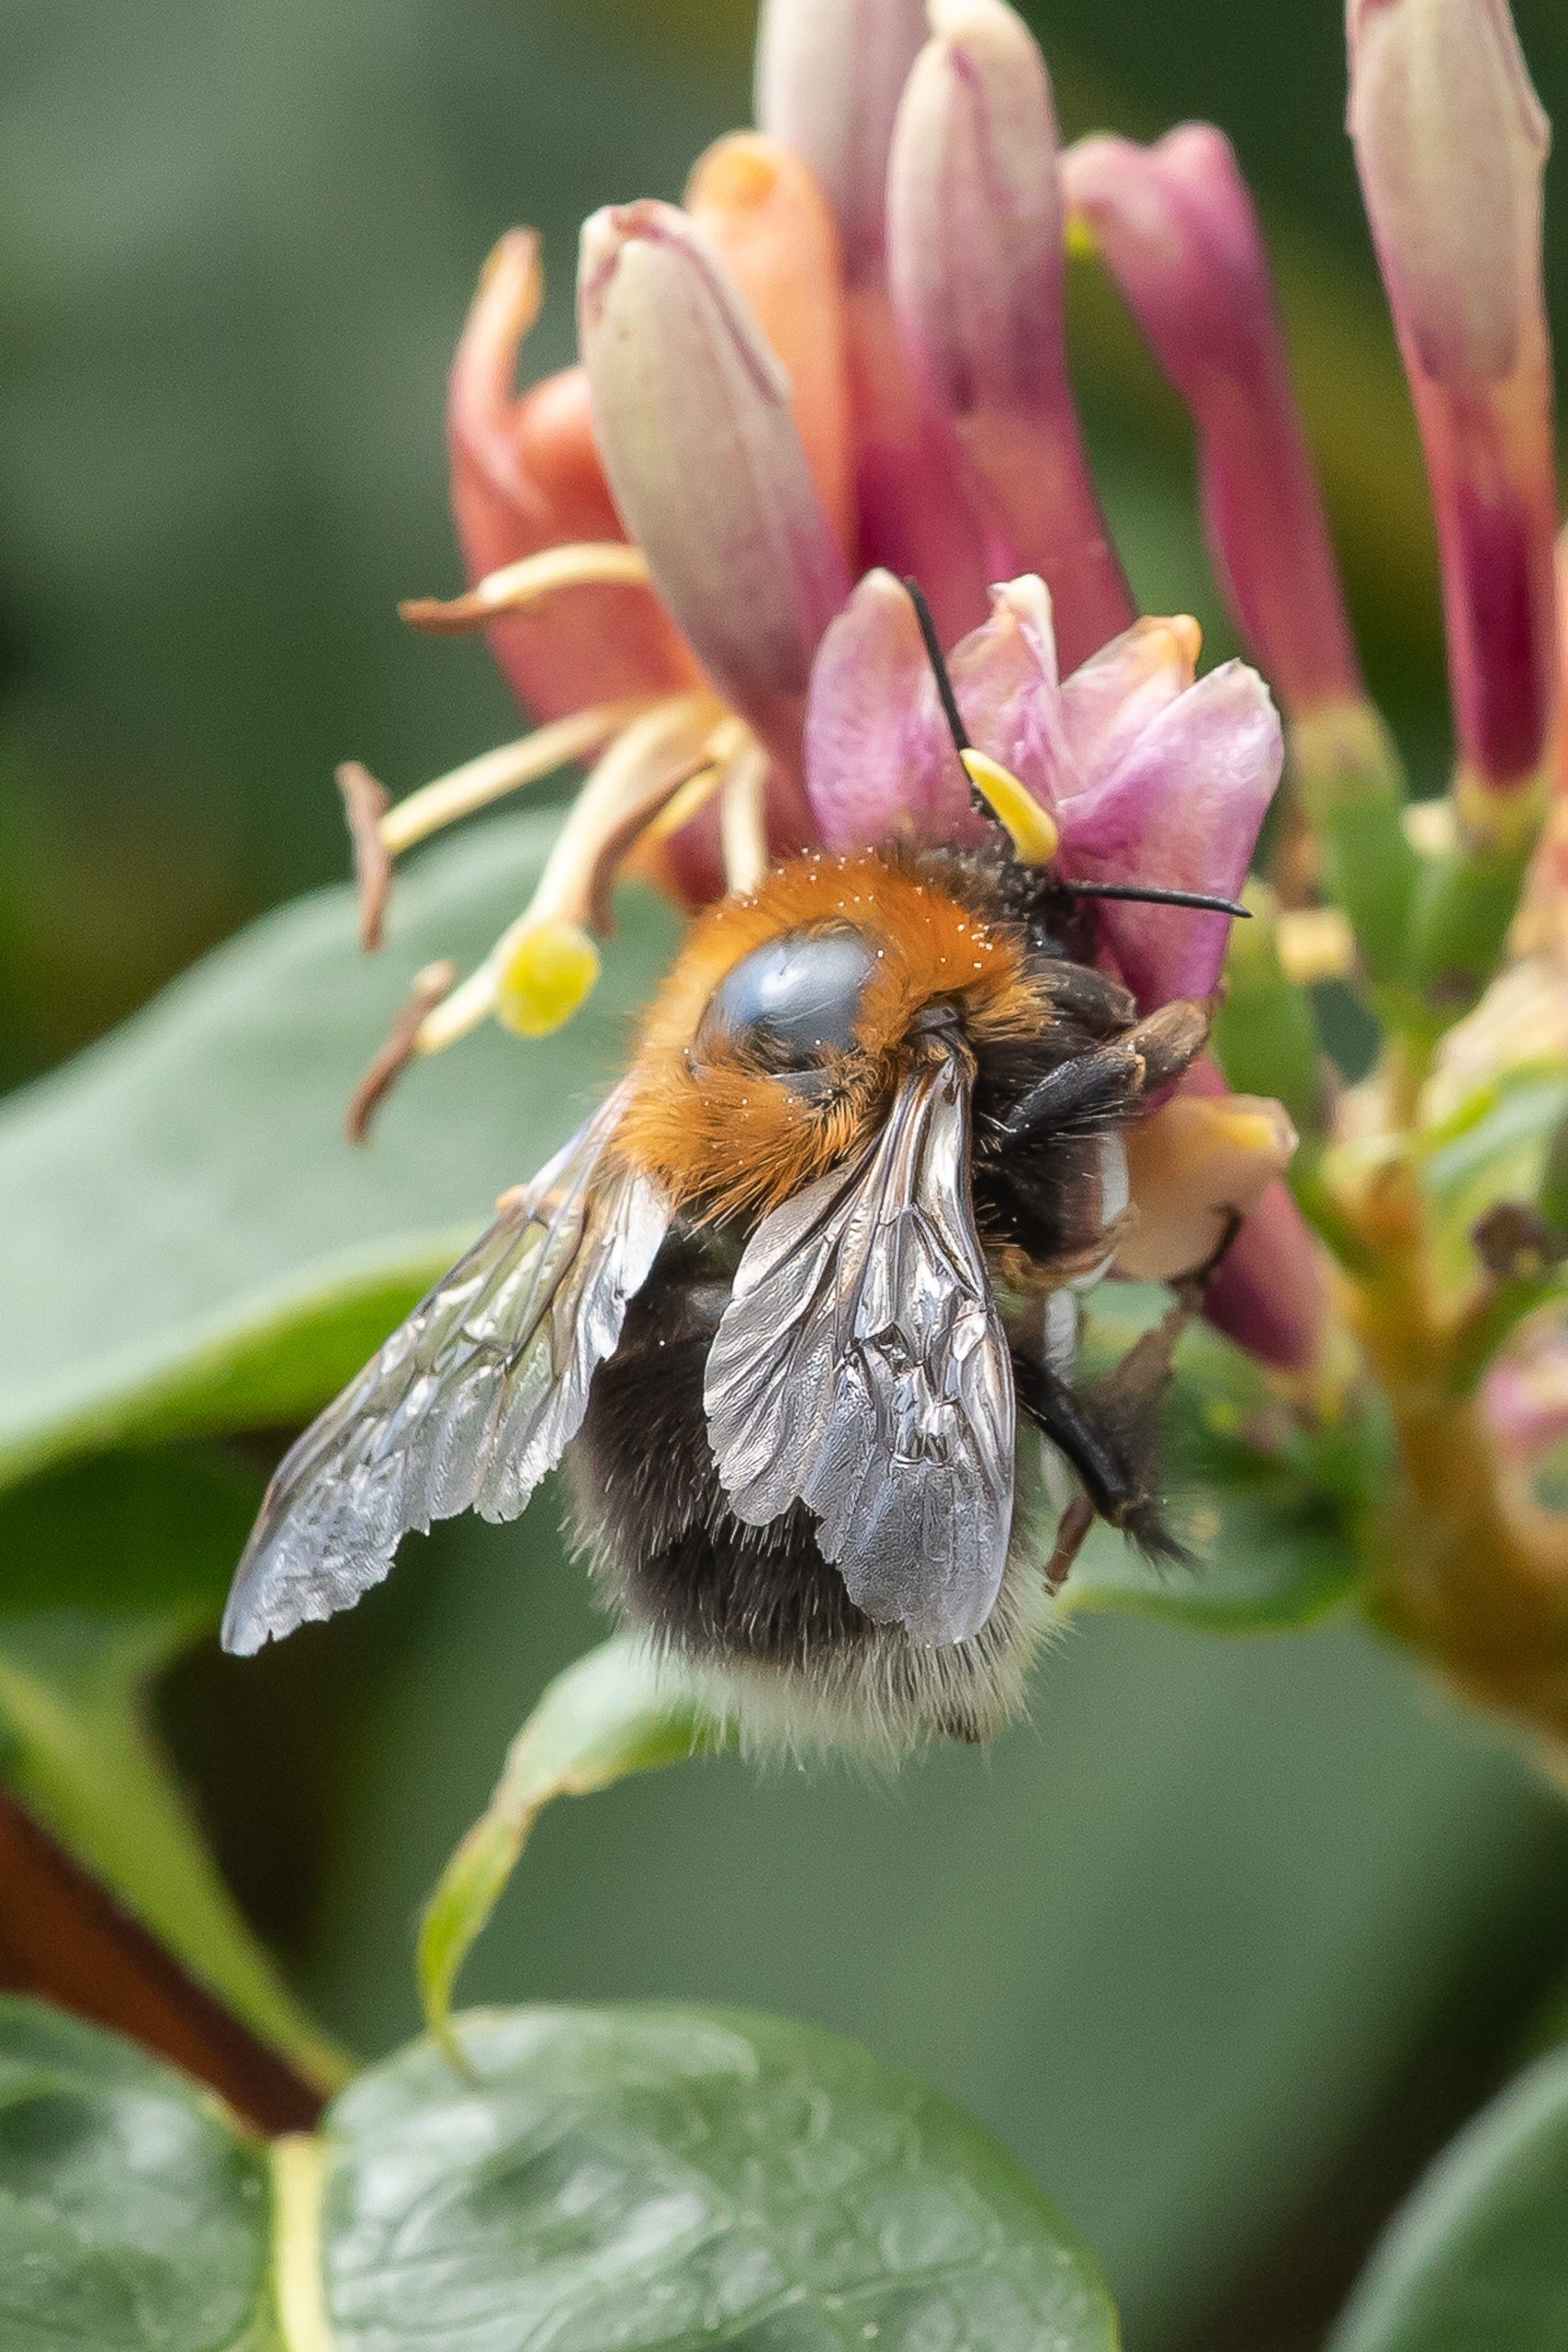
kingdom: Animalia
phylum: Arthropoda
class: Insecta
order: Hymenoptera
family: Apidae
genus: Bombus
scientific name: Bombus hypnorum
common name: Hushumle
